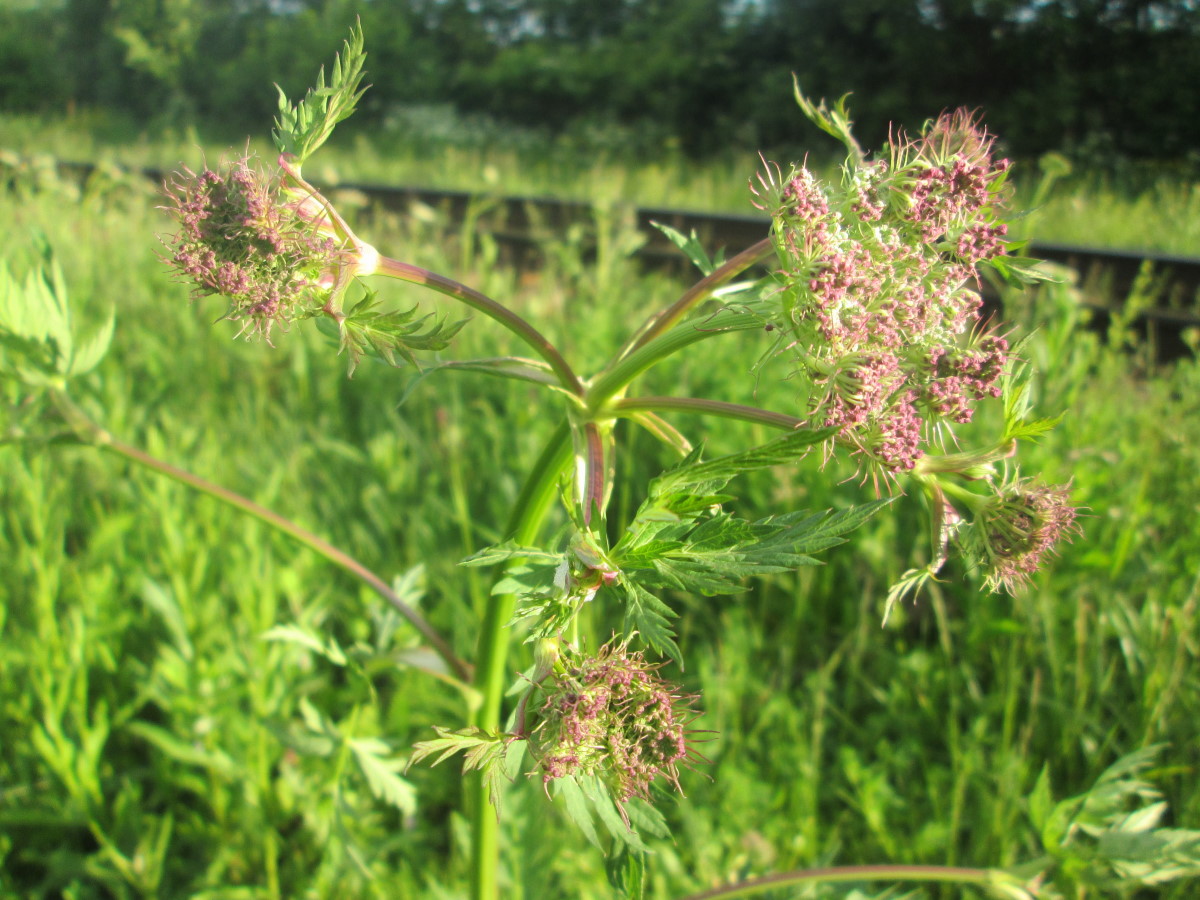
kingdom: Plantae
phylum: Tracheophyta
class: Magnoliopsida
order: Apiales
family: Apiaceae
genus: Seseli
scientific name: Seseli libanotis
